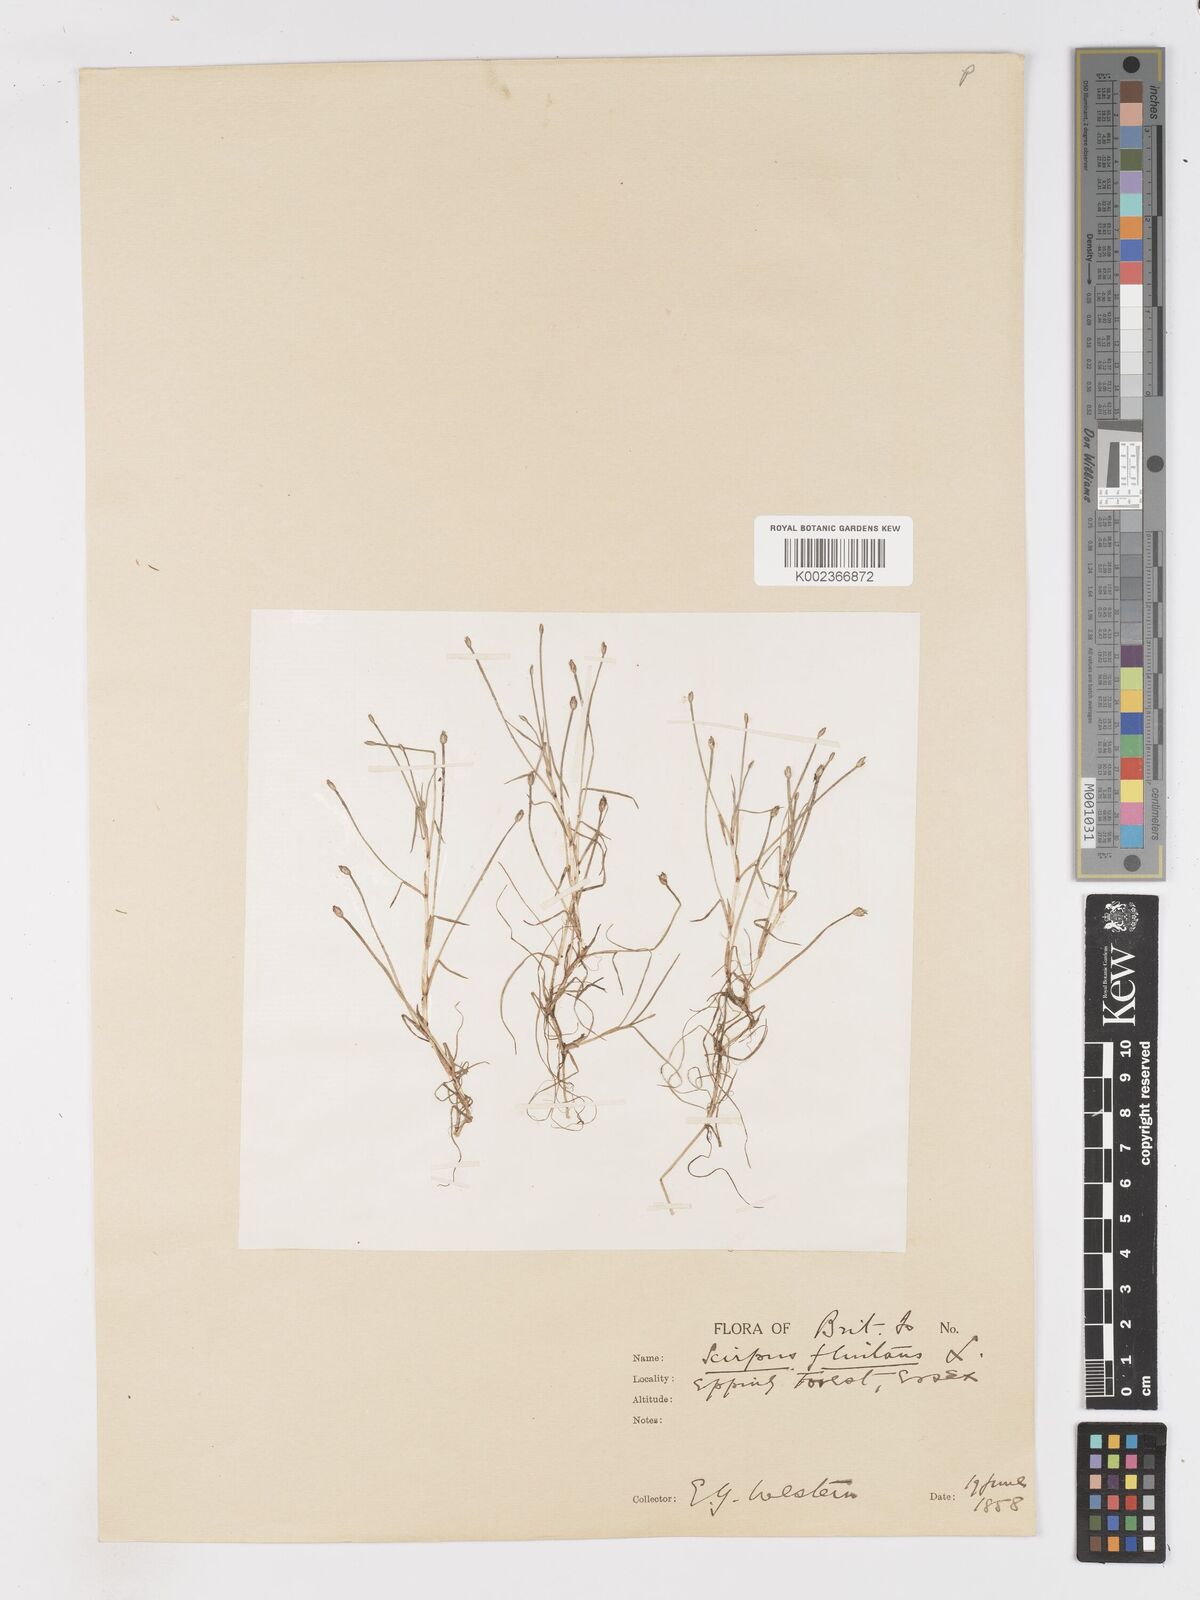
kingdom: Plantae
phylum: Tracheophyta
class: Liliopsida
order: Poales
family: Cyperaceae
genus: Isolepis
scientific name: Isolepis fluitans
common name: Floating club-rush
